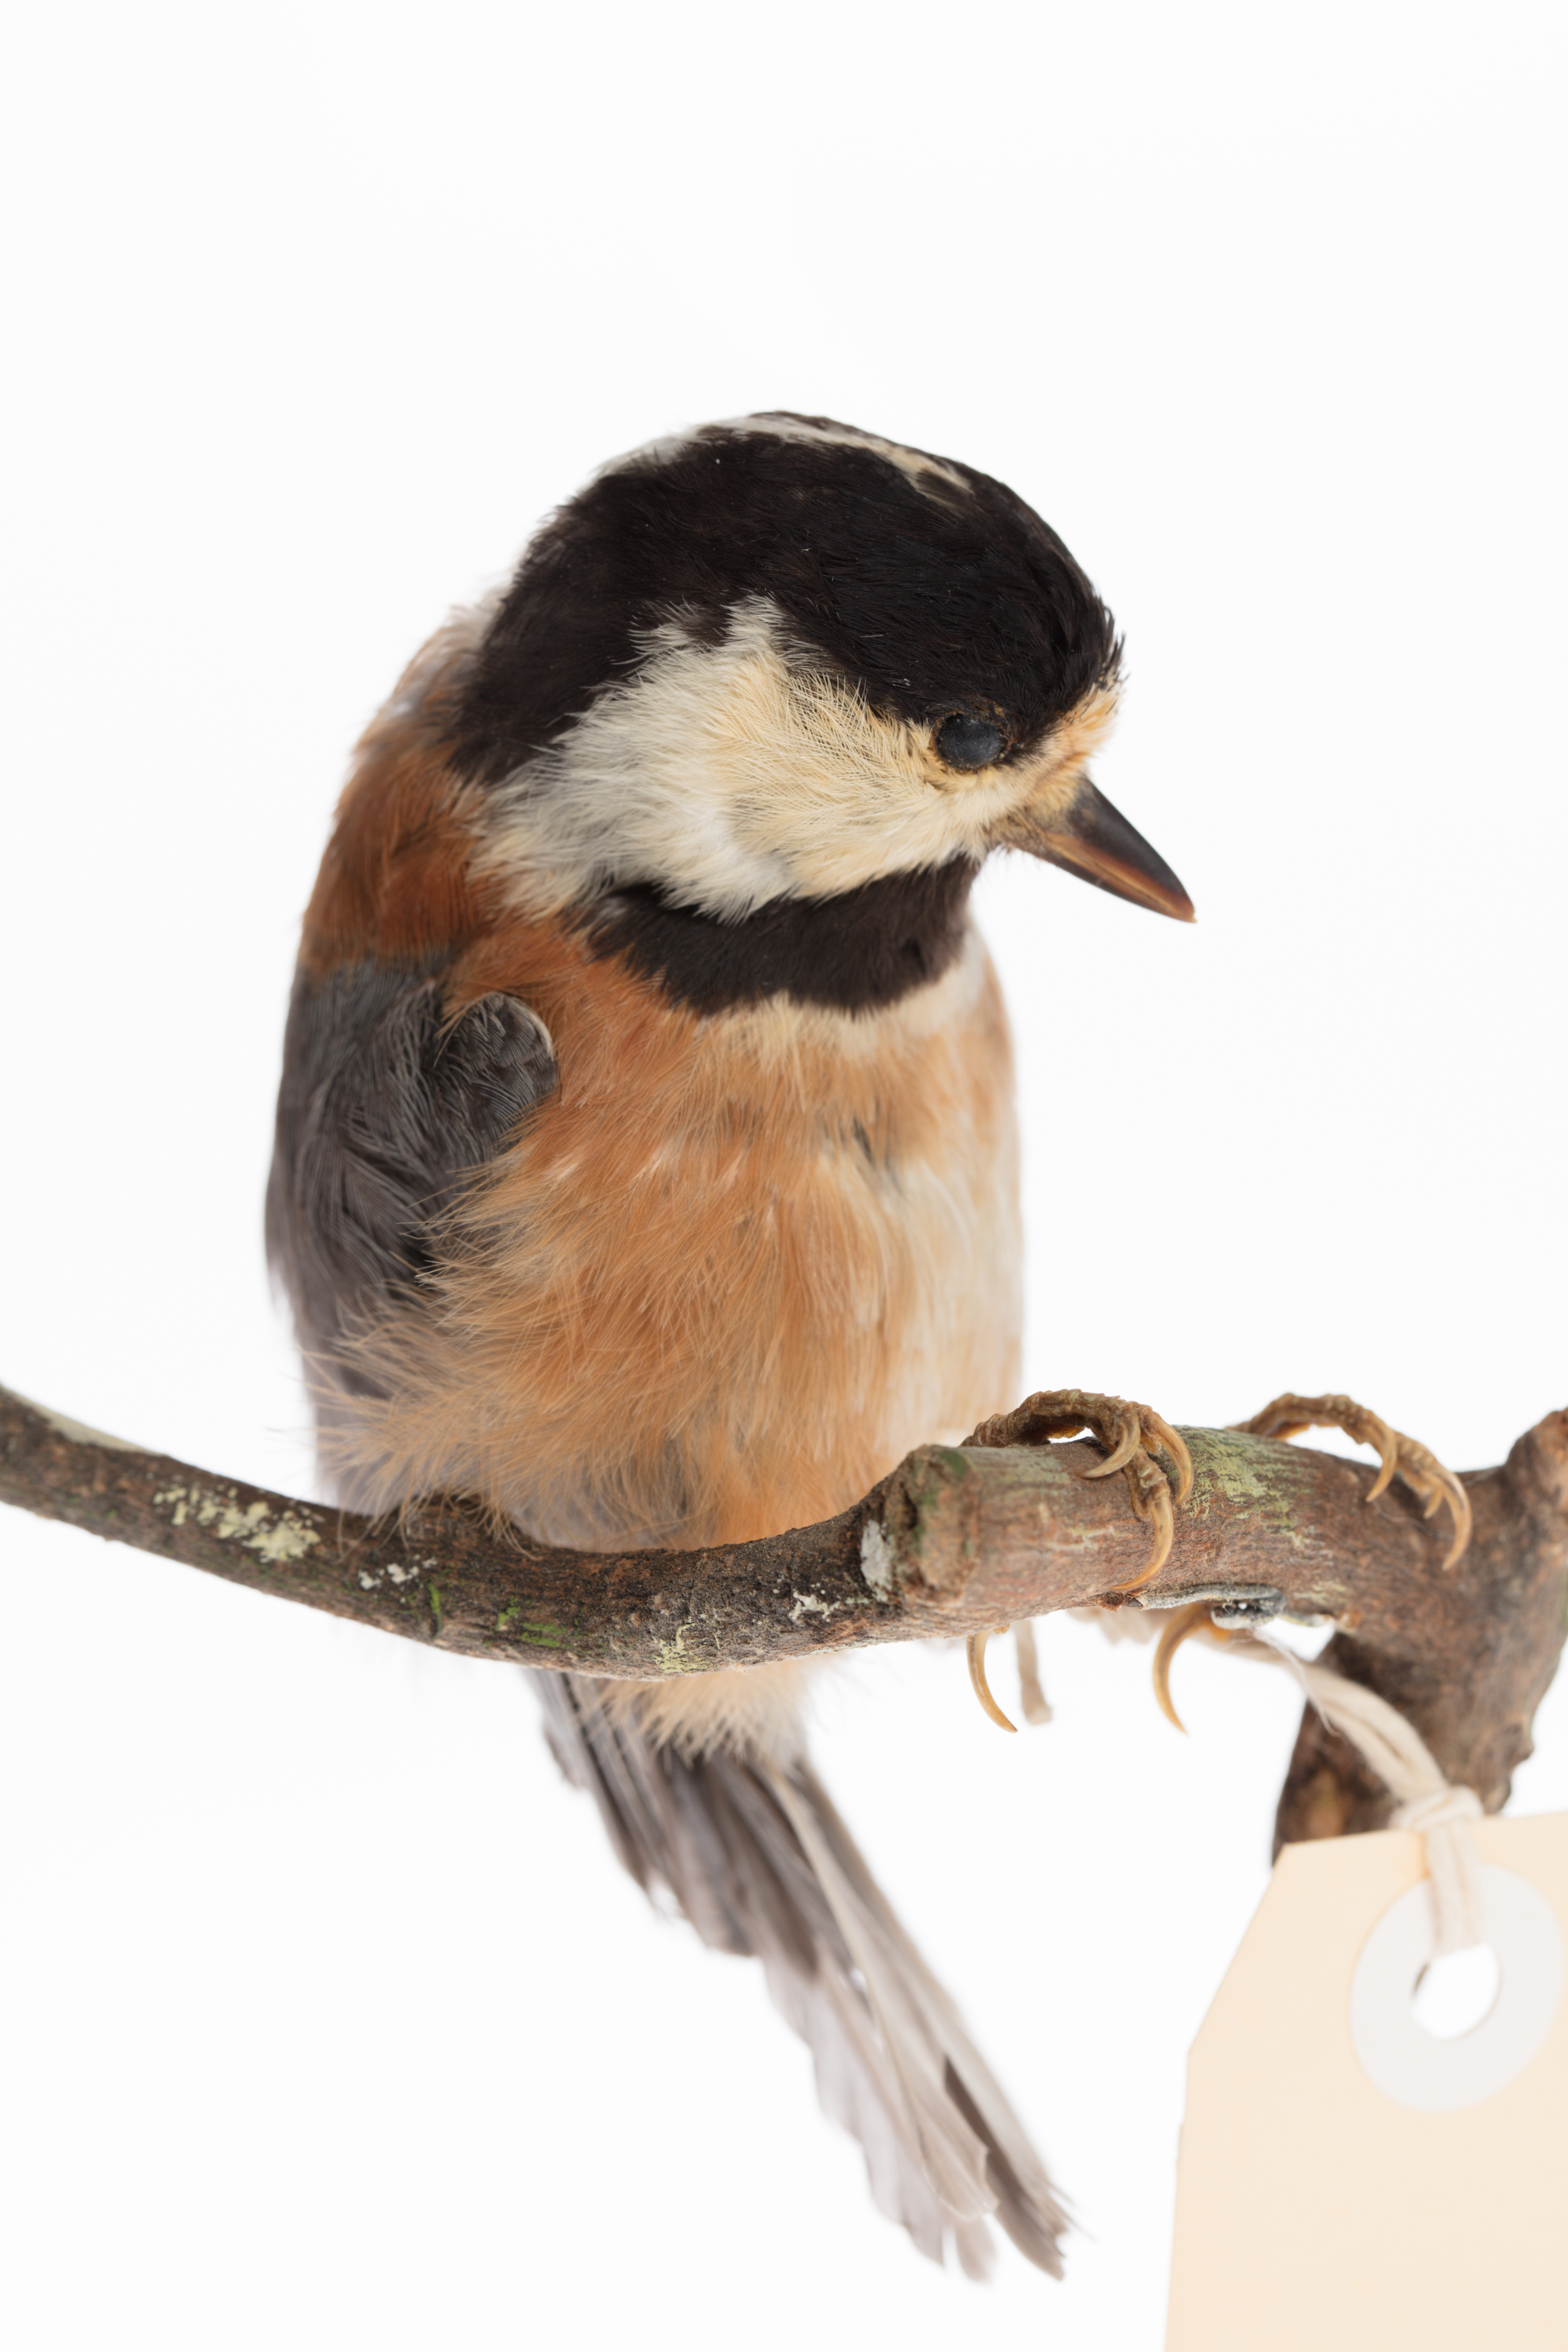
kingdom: Animalia
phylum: Chordata
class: Aves
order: Passeriformes
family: Paridae
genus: Parus
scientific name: Parus
